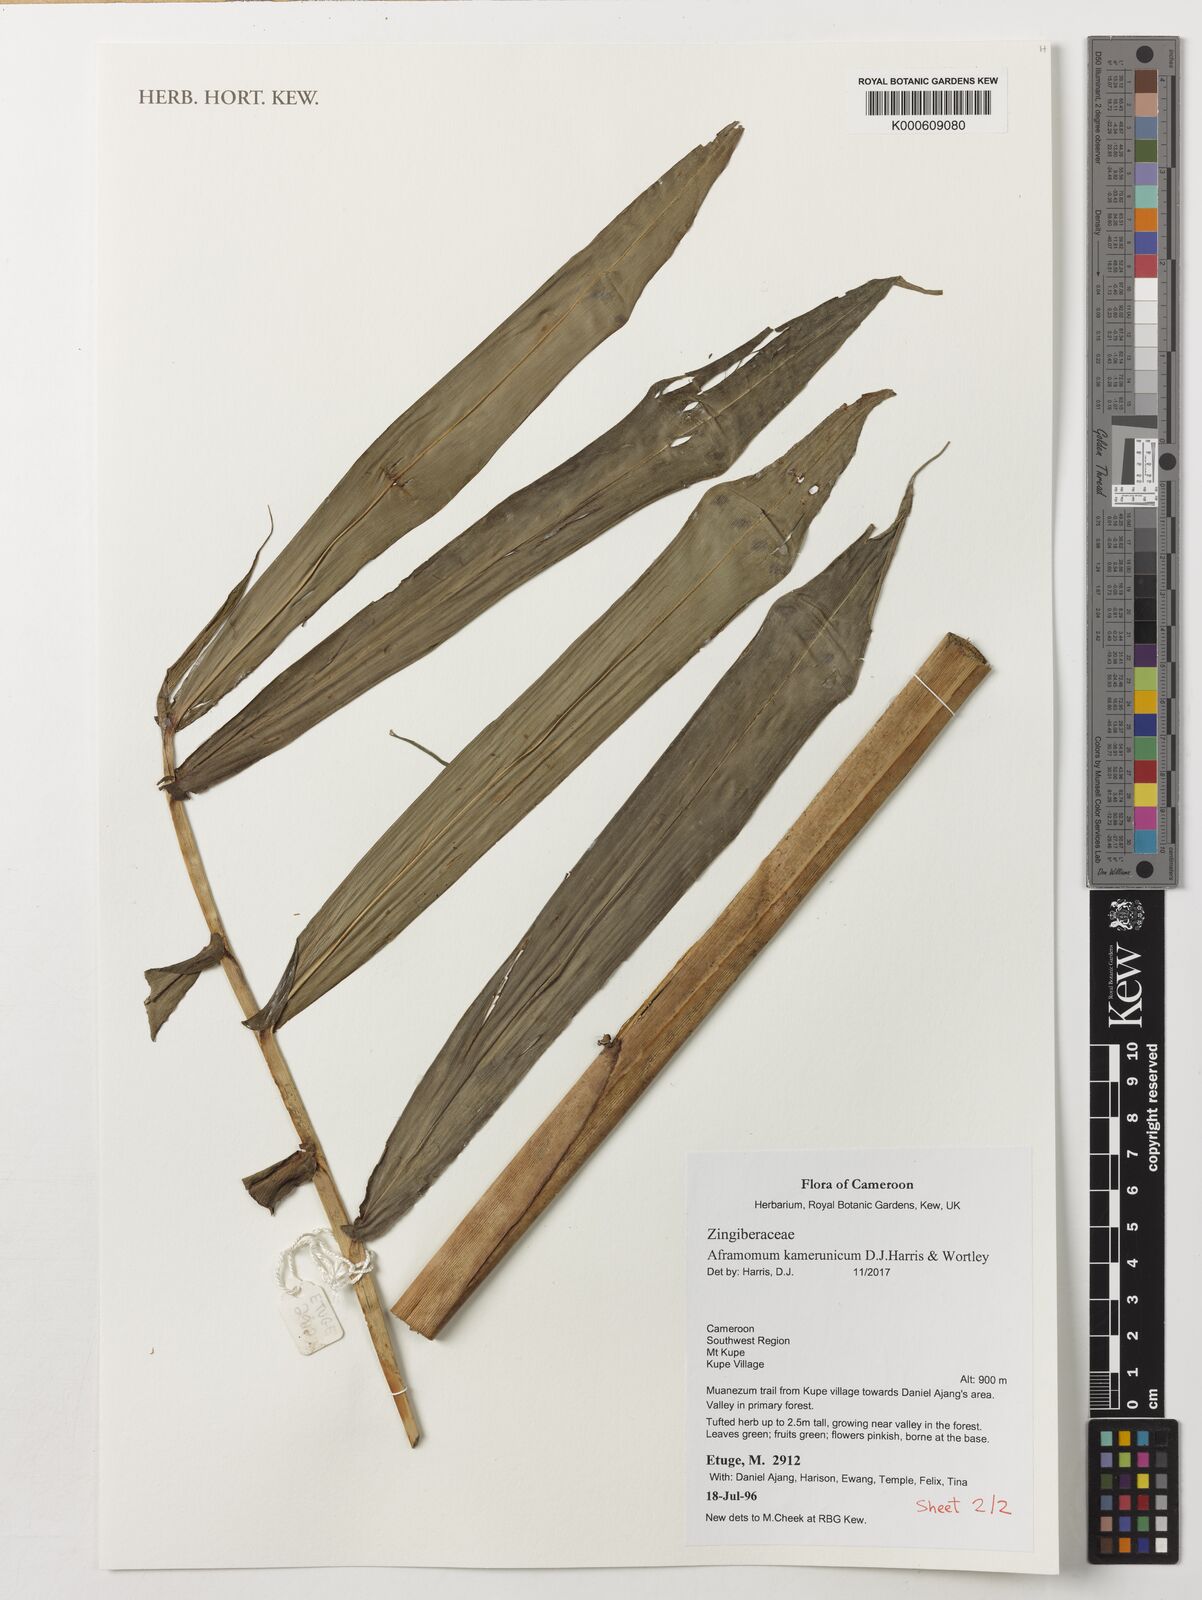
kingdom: Plantae
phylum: Tracheophyta
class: Liliopsida
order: Zingiberales
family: Zingiberaceae
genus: Aframomum
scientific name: Aframomum kamerunicum
